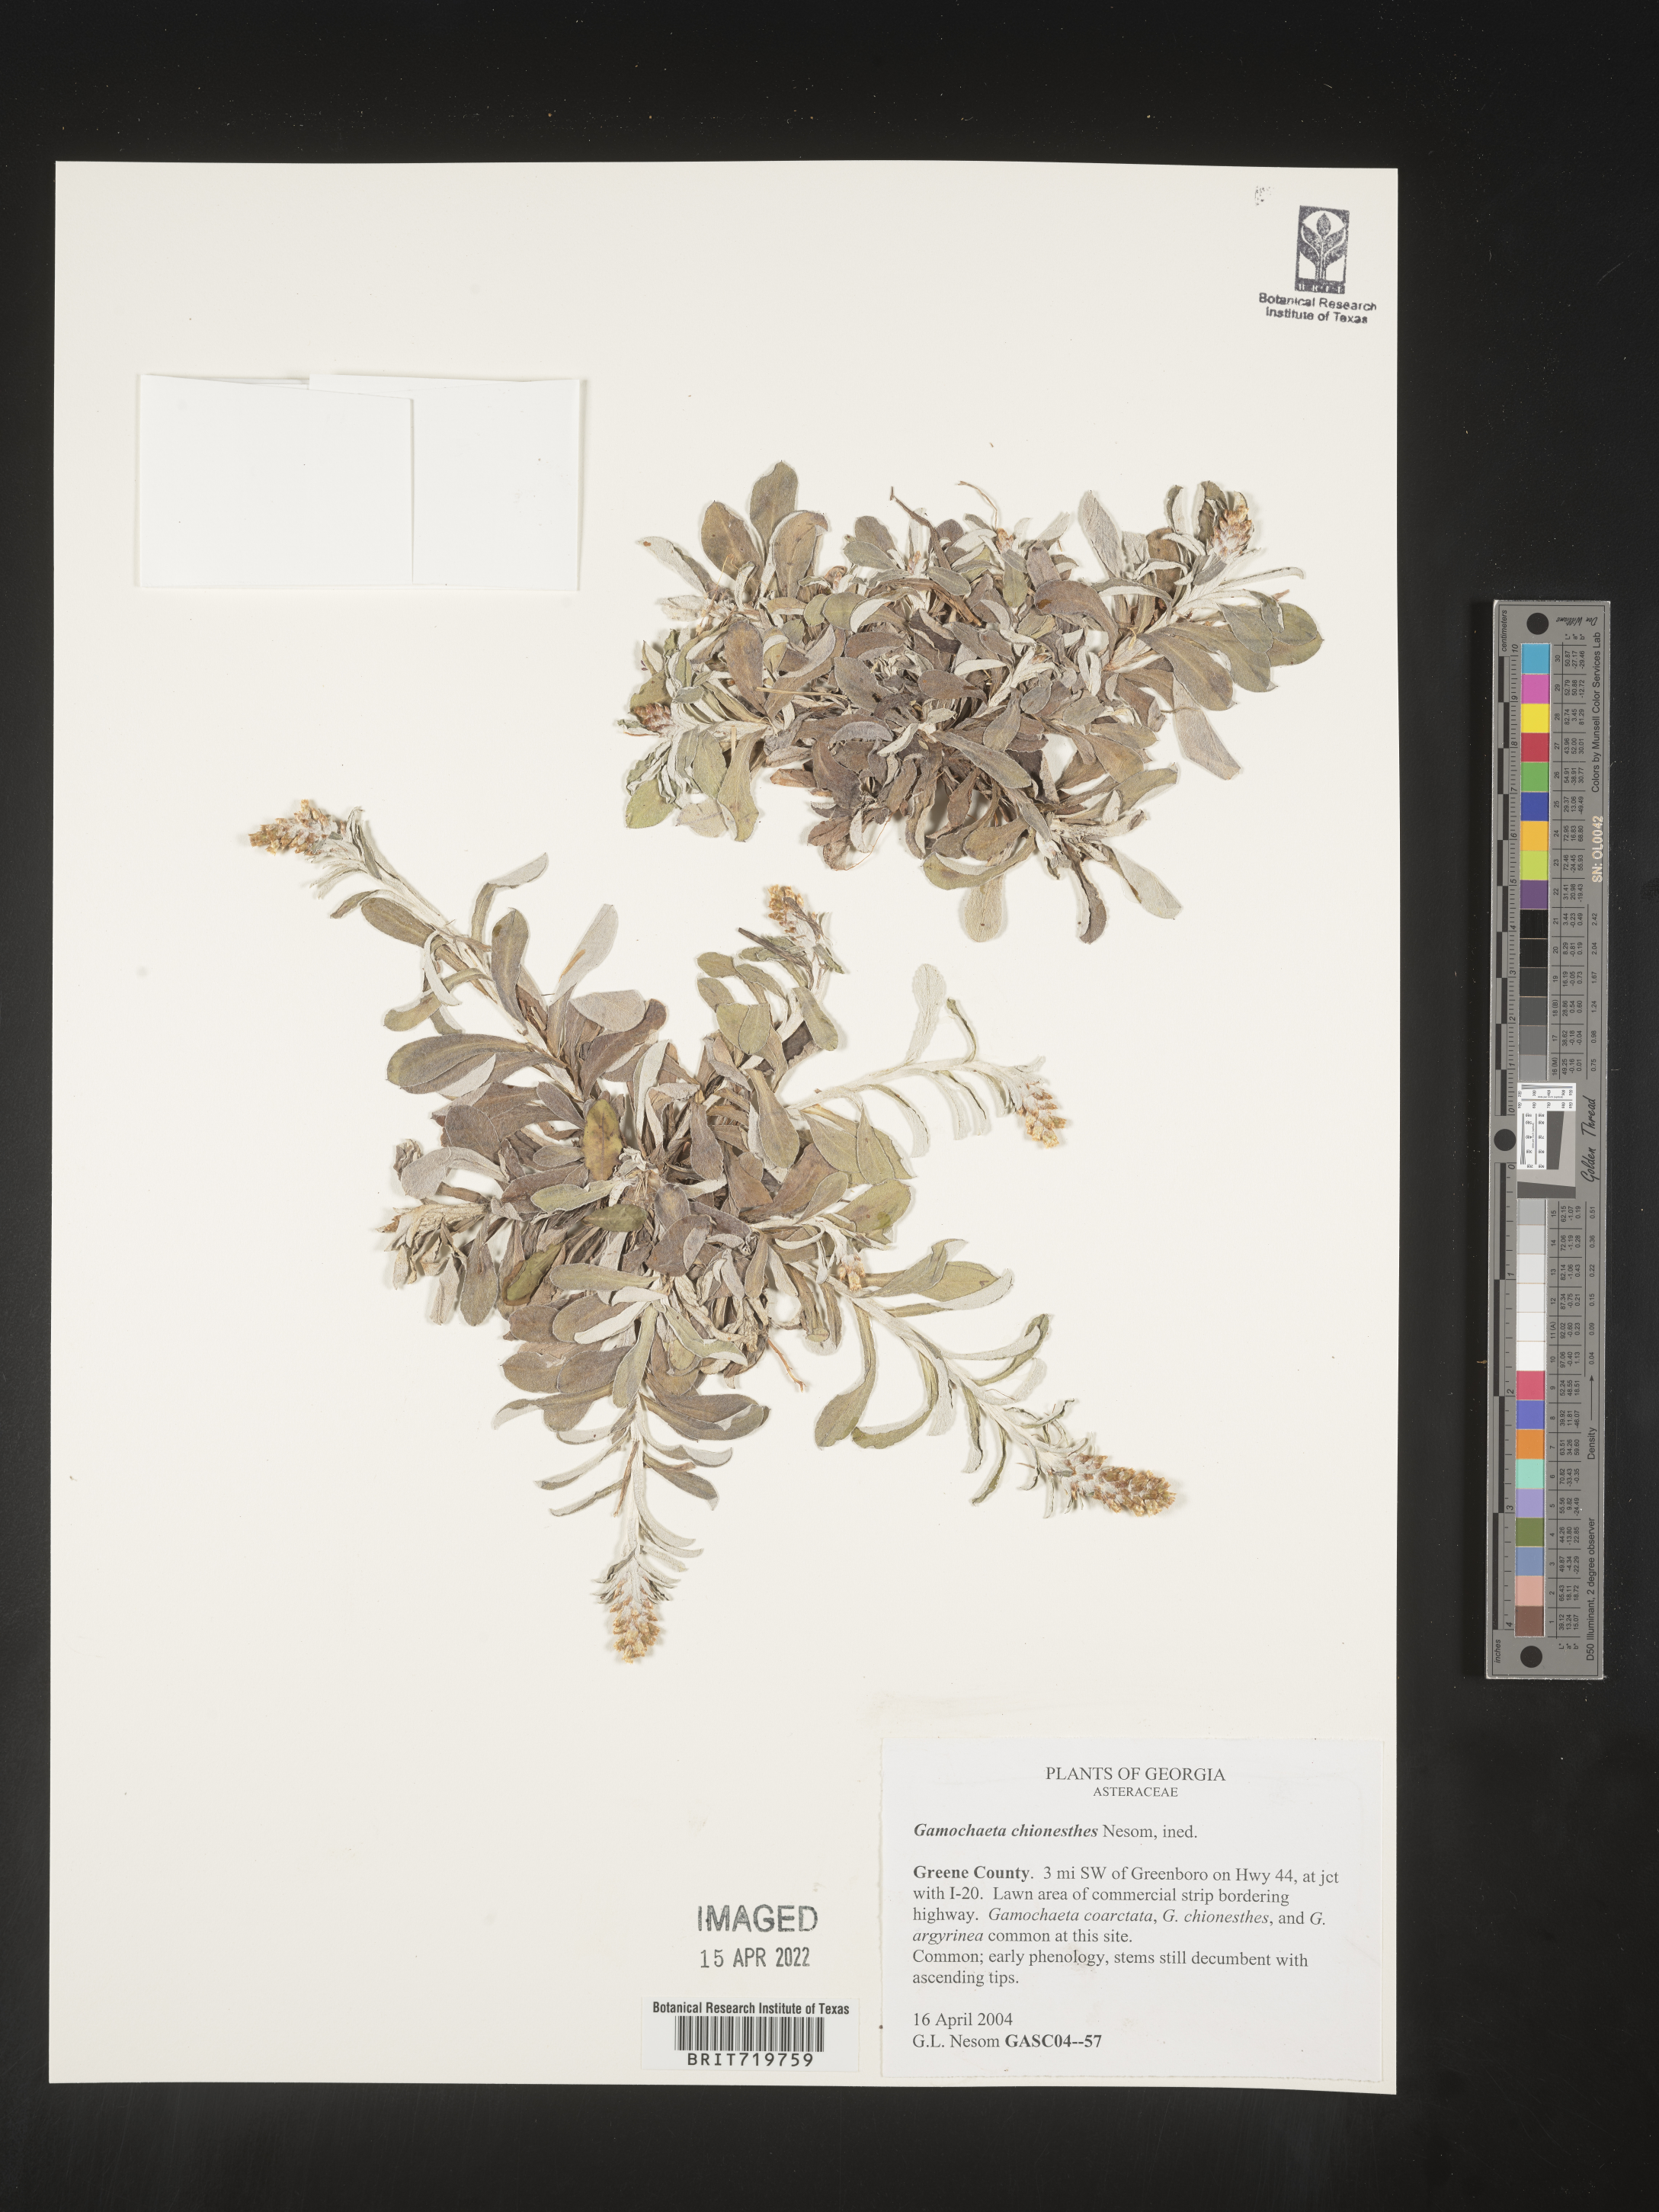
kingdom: Plantae
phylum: Tracheophyta
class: Magnoliopsida
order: Asterales
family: Asteraceae
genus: Gamochaeta
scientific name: Gamochaeta chionesthes
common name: Gray everlasting
